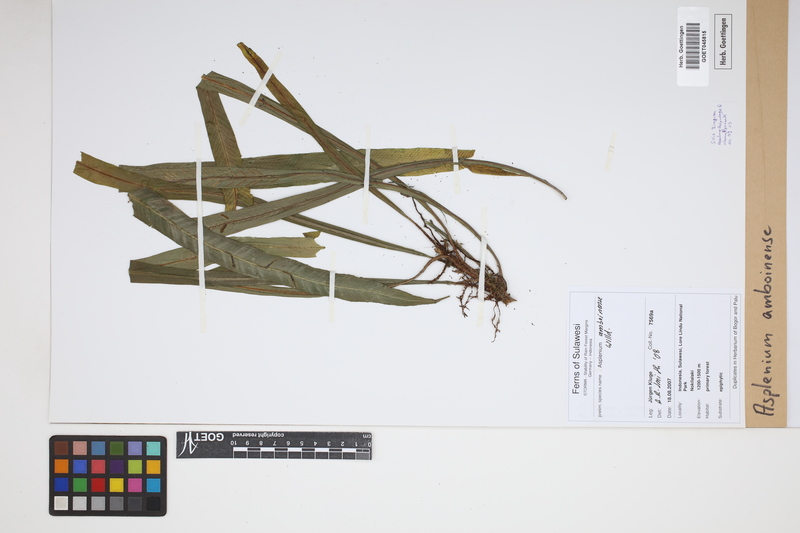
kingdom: Plantae
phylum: Tracheophyta
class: Polypodiopsida
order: Polypodiales
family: Aspleniaceae
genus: Asplenium
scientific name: Asplenium amboinense
